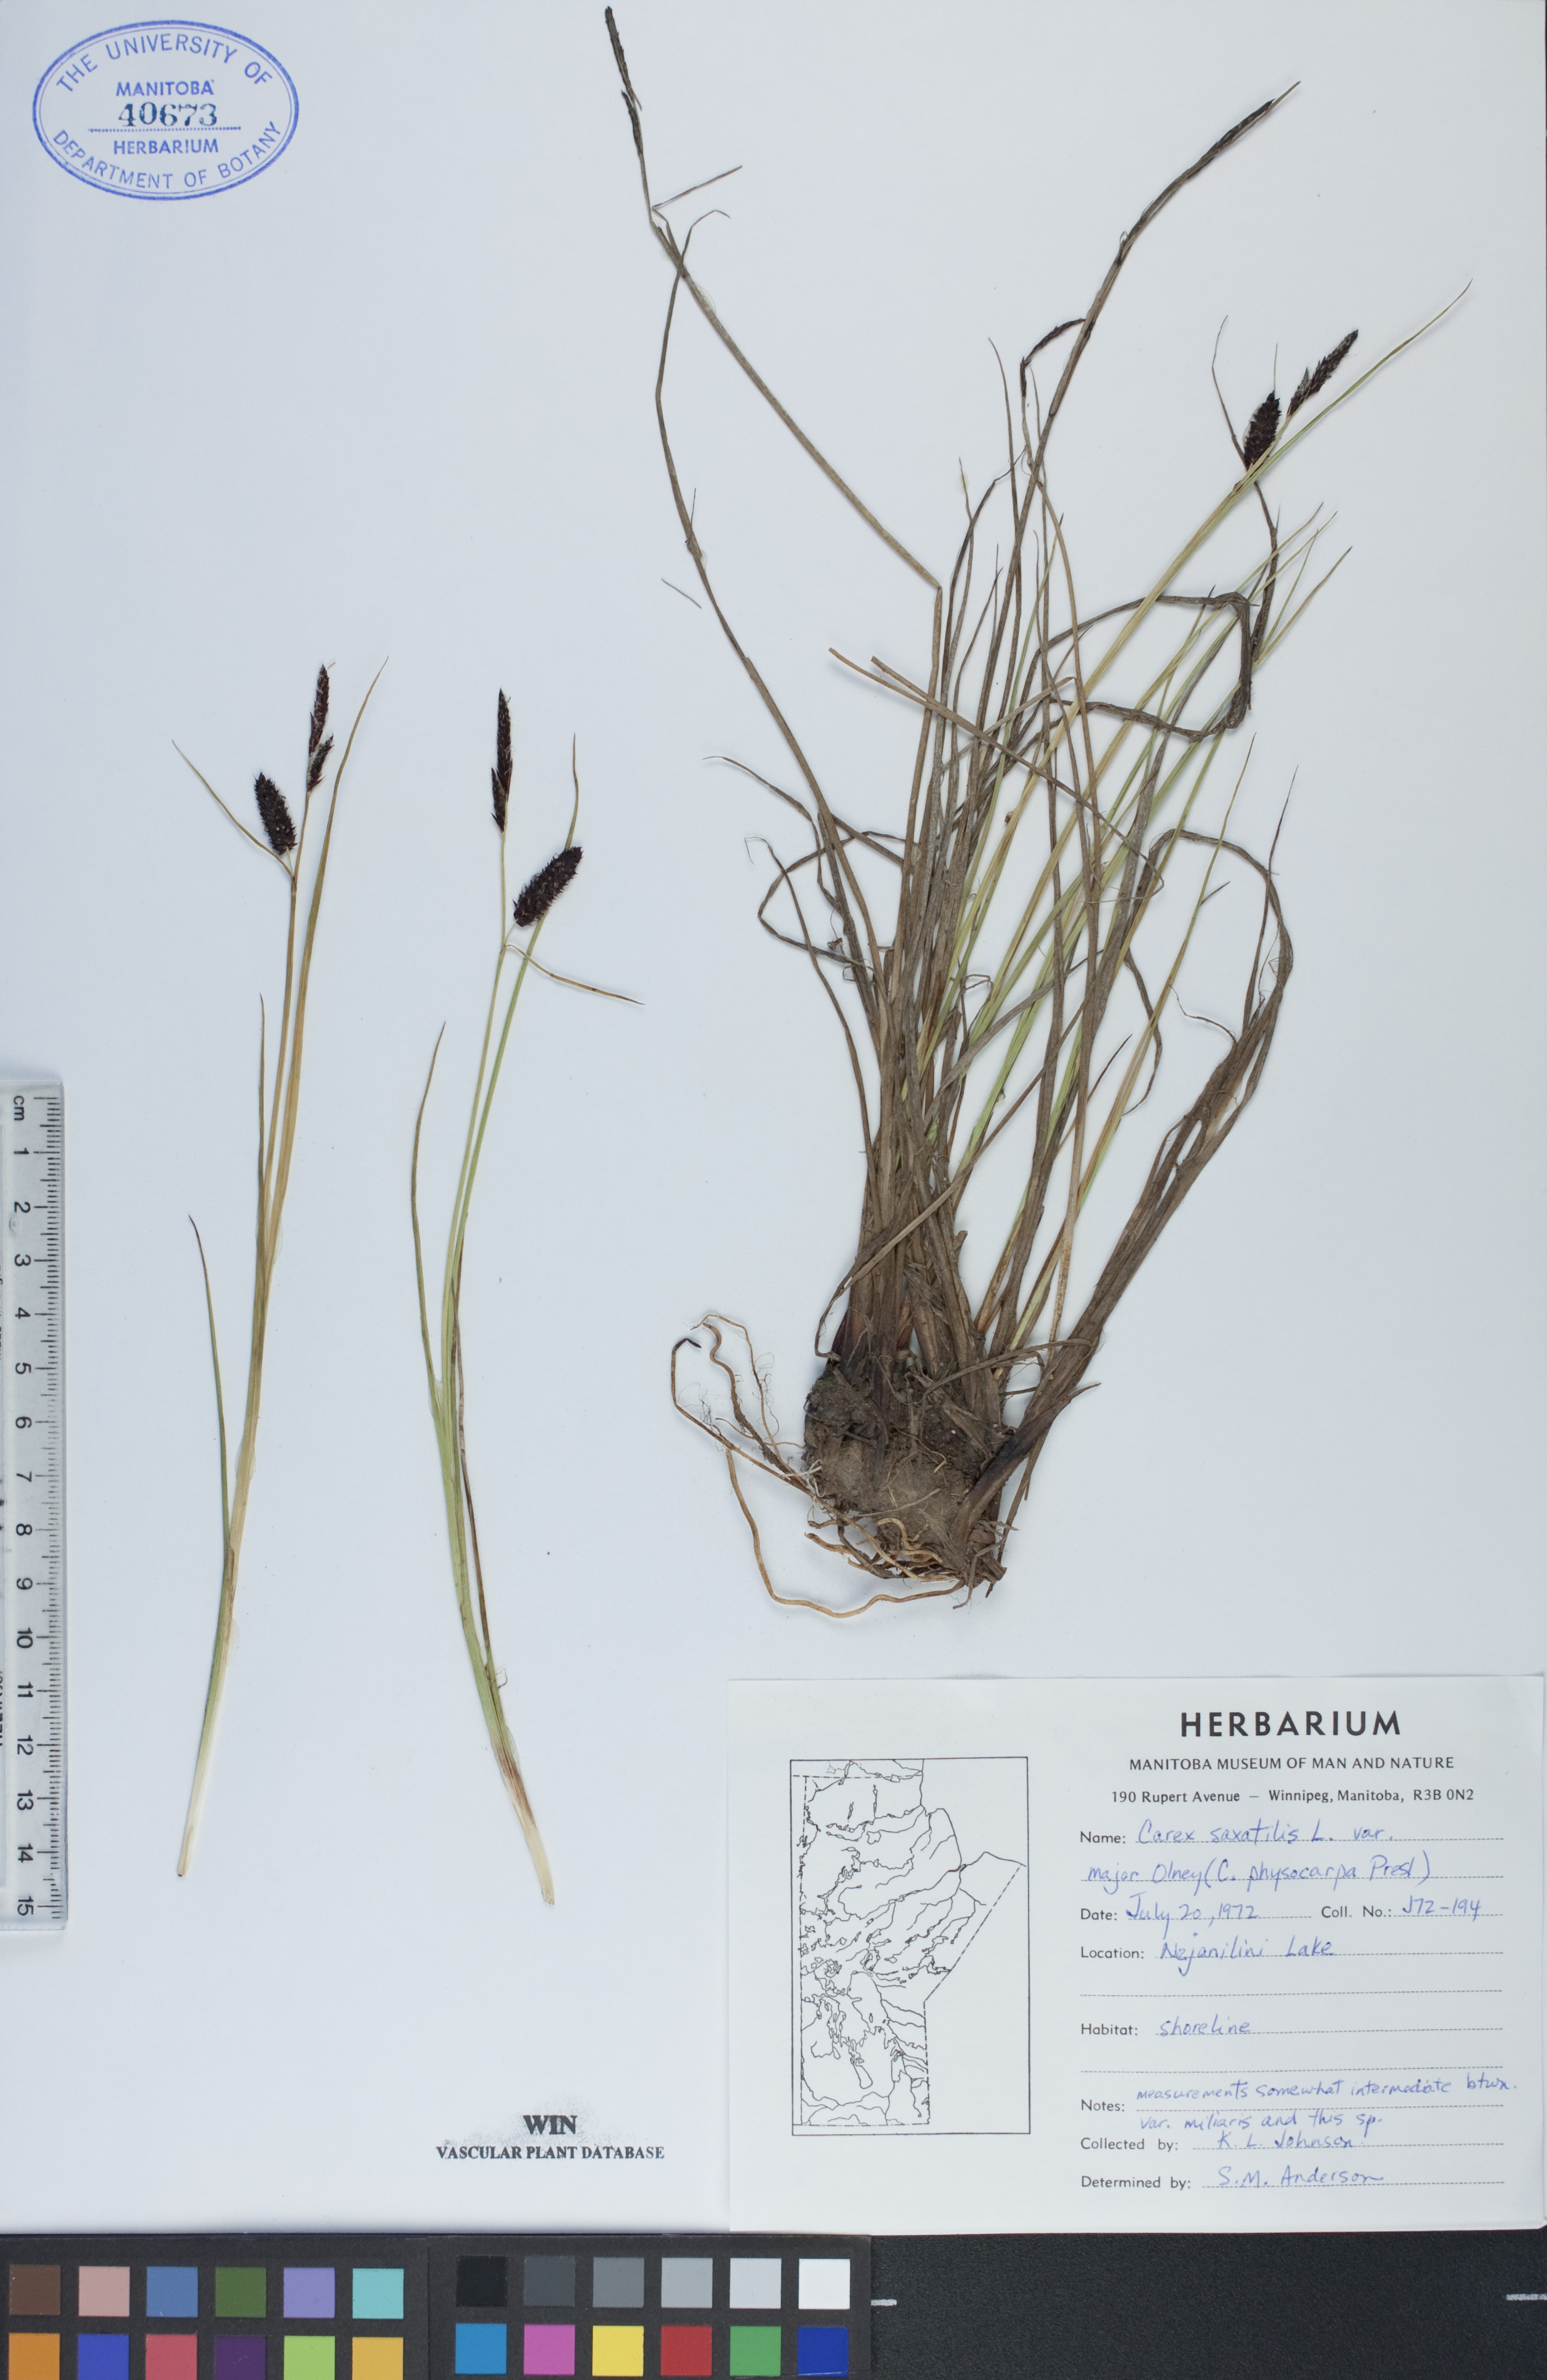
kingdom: Plantae
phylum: Tracheophyta
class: Liliopsida
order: Poales
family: Cyperaceae
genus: Carex
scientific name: Carex saxatilis
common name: Russet sedge
